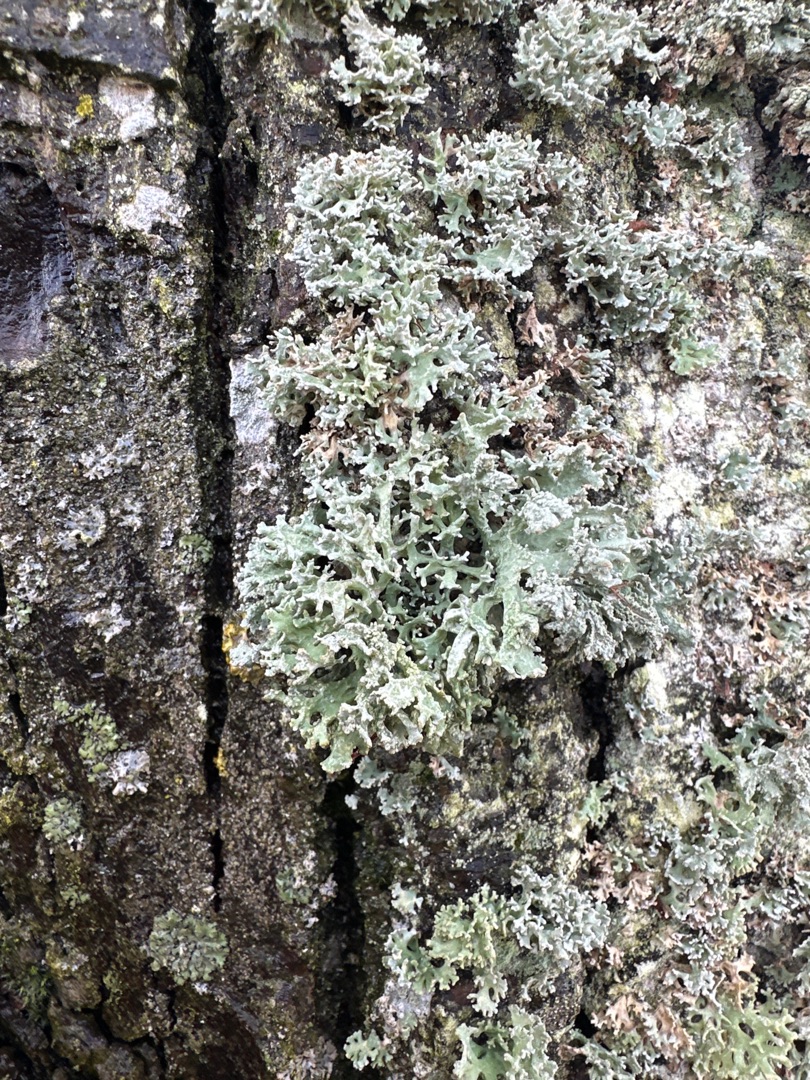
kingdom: Fungi
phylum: Ascomycota
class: Lecanoromycetes
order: Lecanorales
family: Parmeliaceae
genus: Evernia
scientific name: Evernia prunastri
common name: Almindelig slåenlav
